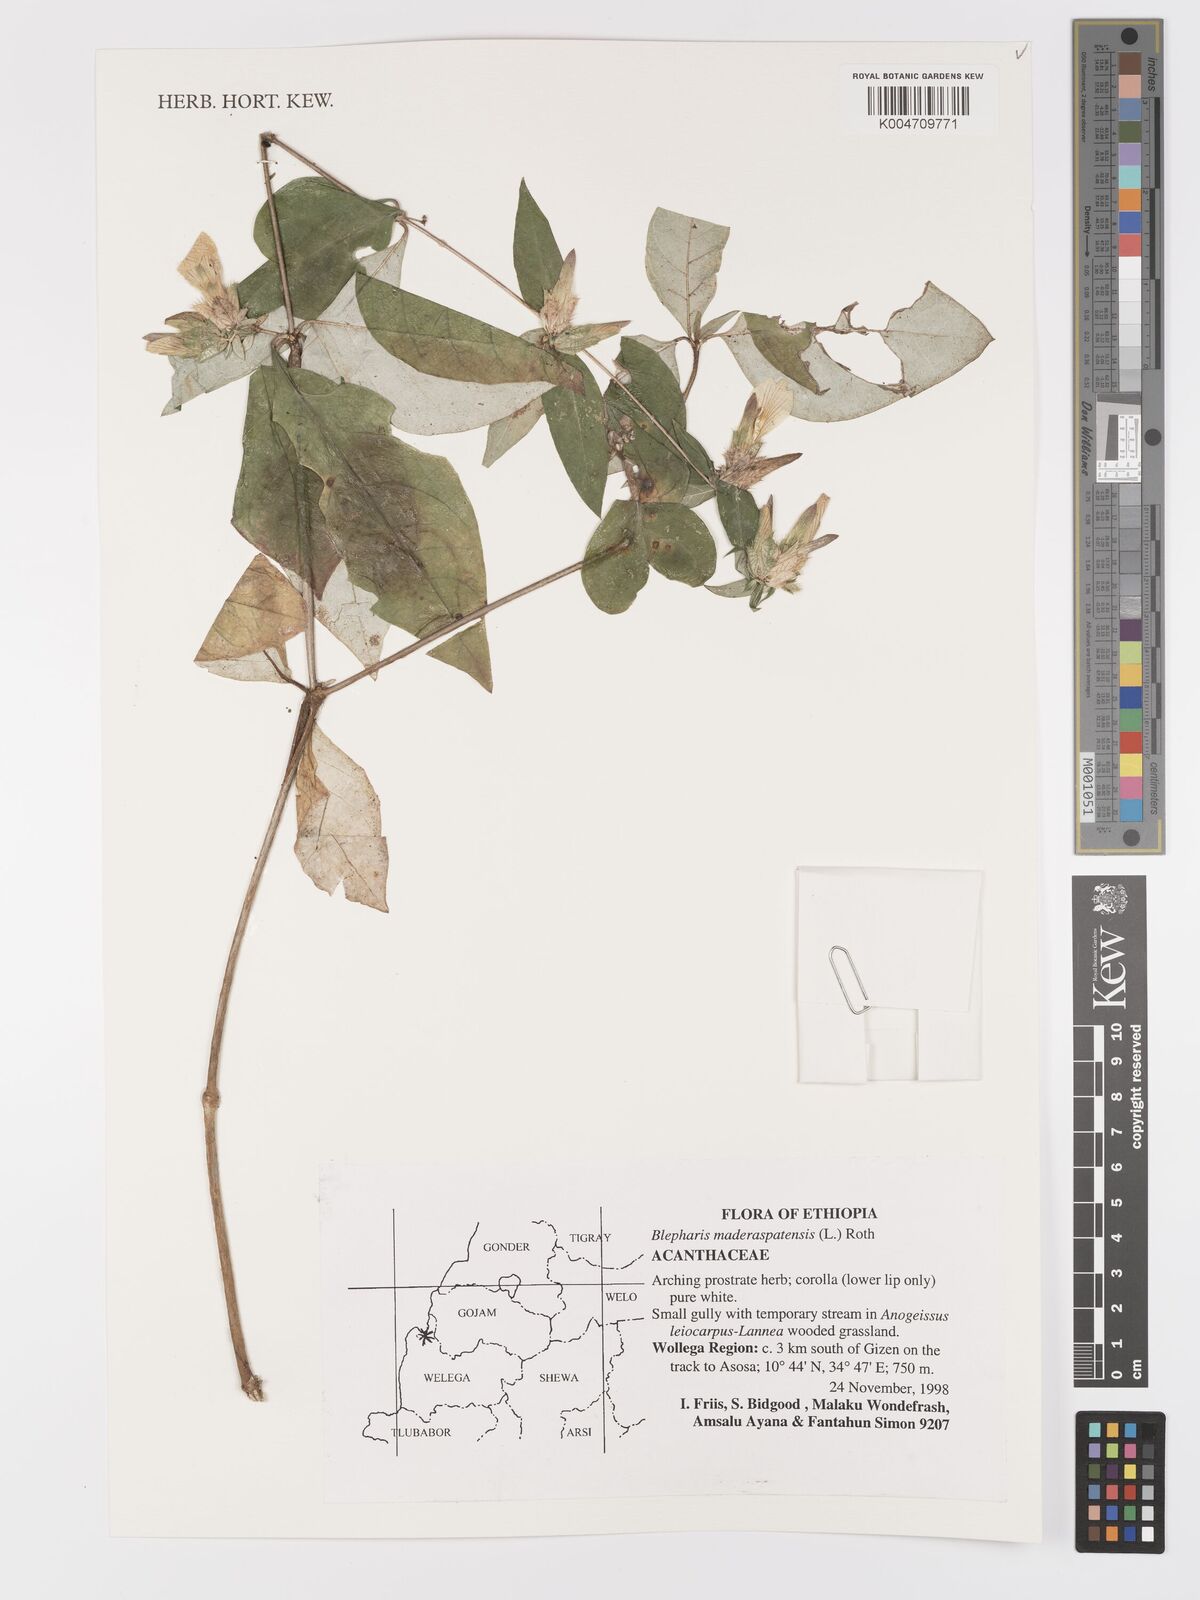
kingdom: Plantae
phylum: Tracheophyta
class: Magnoliopsida
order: Lamiales
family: Acanthaceae
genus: Blepharis
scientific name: Blepharis maderaspatensis
